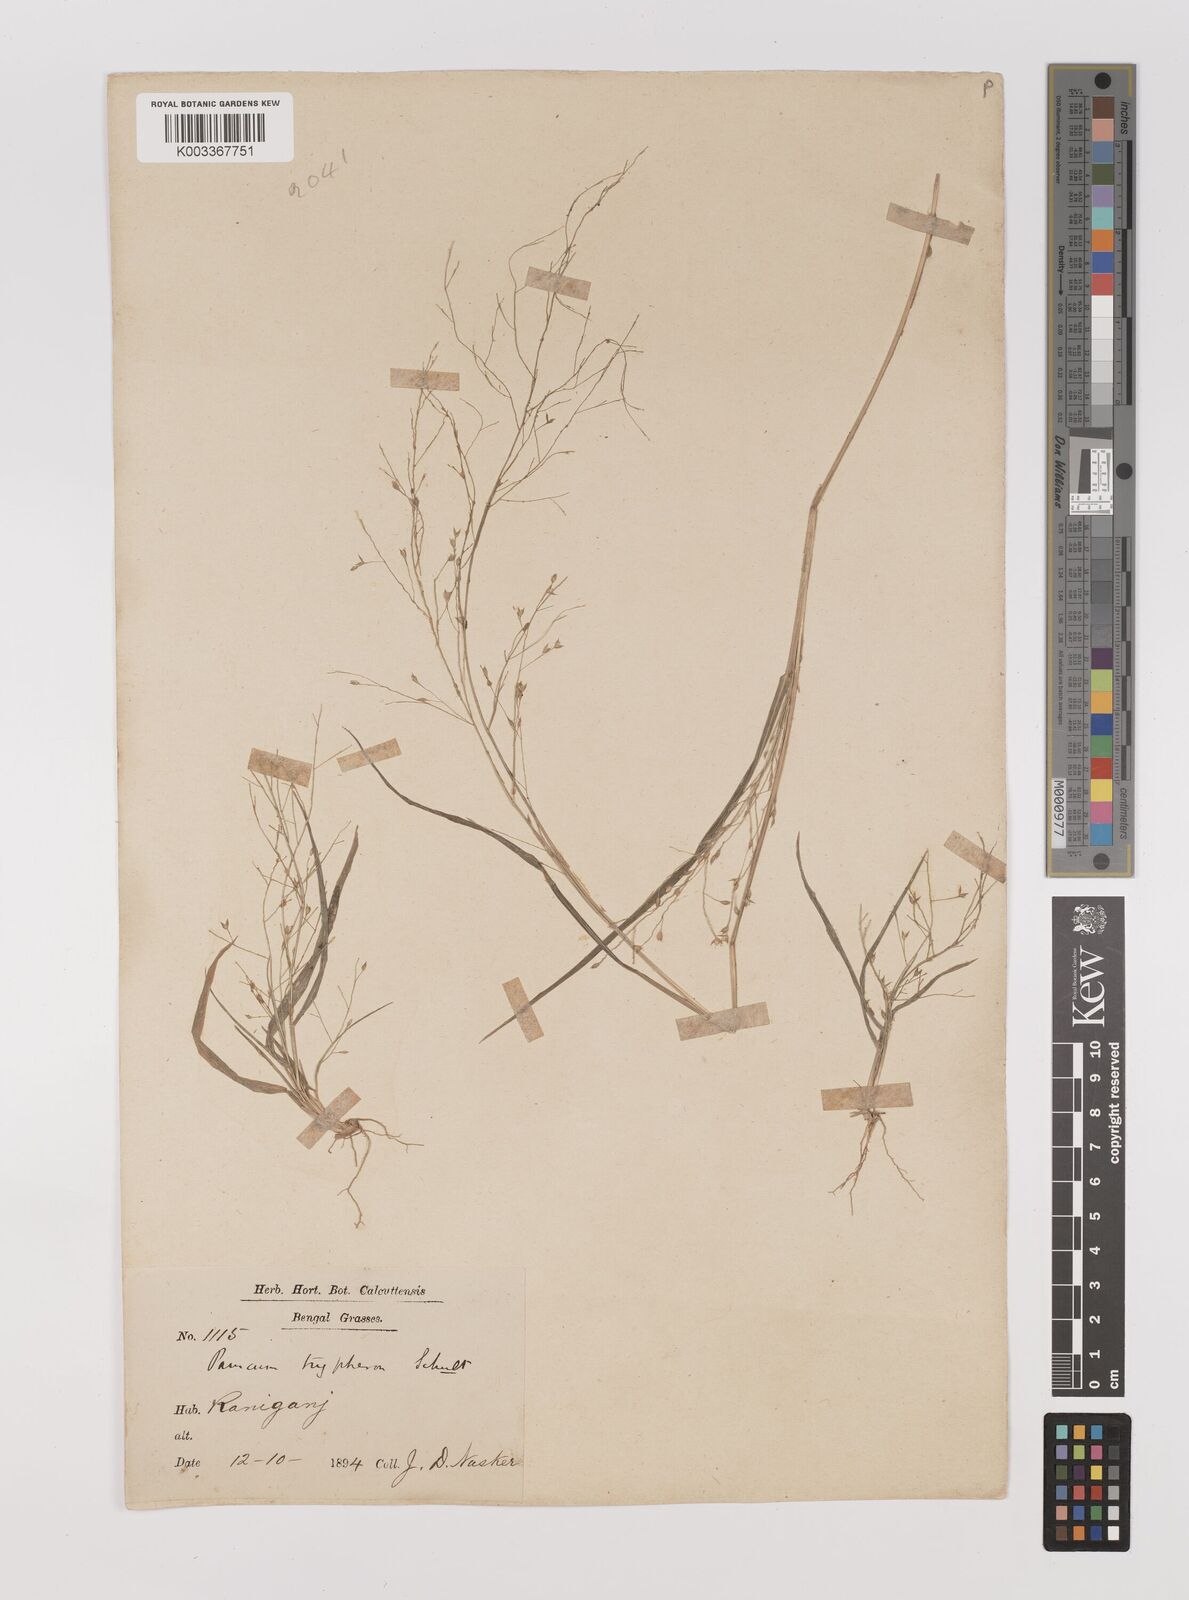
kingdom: Plantae
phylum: Tracheophyta
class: Liliopsida
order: Poales
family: Poaceae
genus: Panicum
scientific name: Panicum curviflorum
